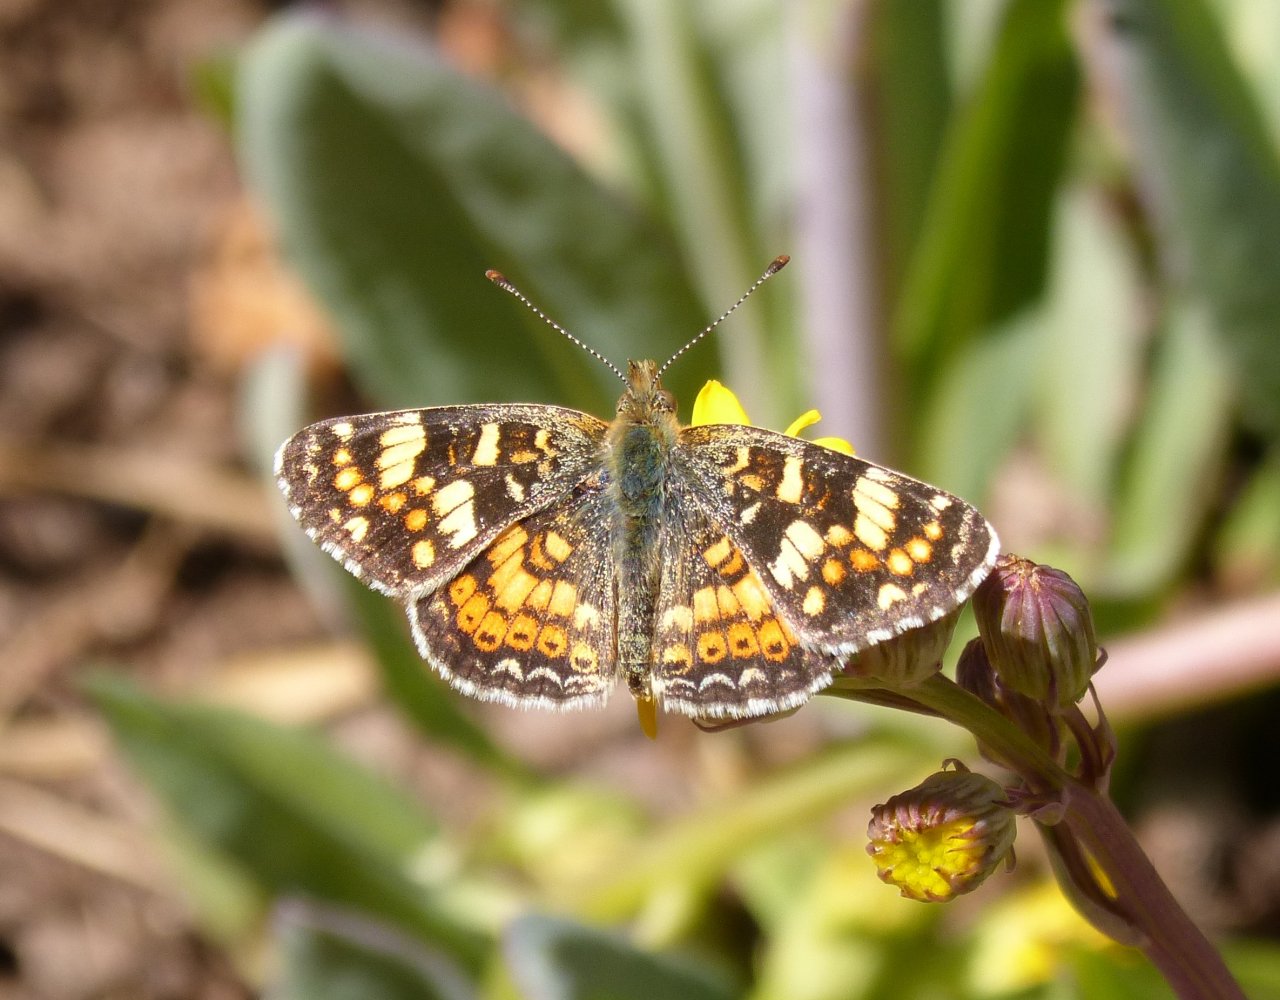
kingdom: Animalia
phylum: Arthropoda
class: Insecta
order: Lepidoptera
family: Nymphalidae
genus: Phyciodes
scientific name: Phyciodes picta
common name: Painted Crescent
